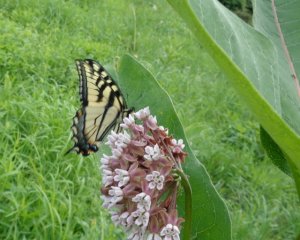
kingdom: Animalia
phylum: Arthropoda
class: Insecta
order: Lepidoptera
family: Papilionidae
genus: Pterourus
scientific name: Pterourus glaucus
